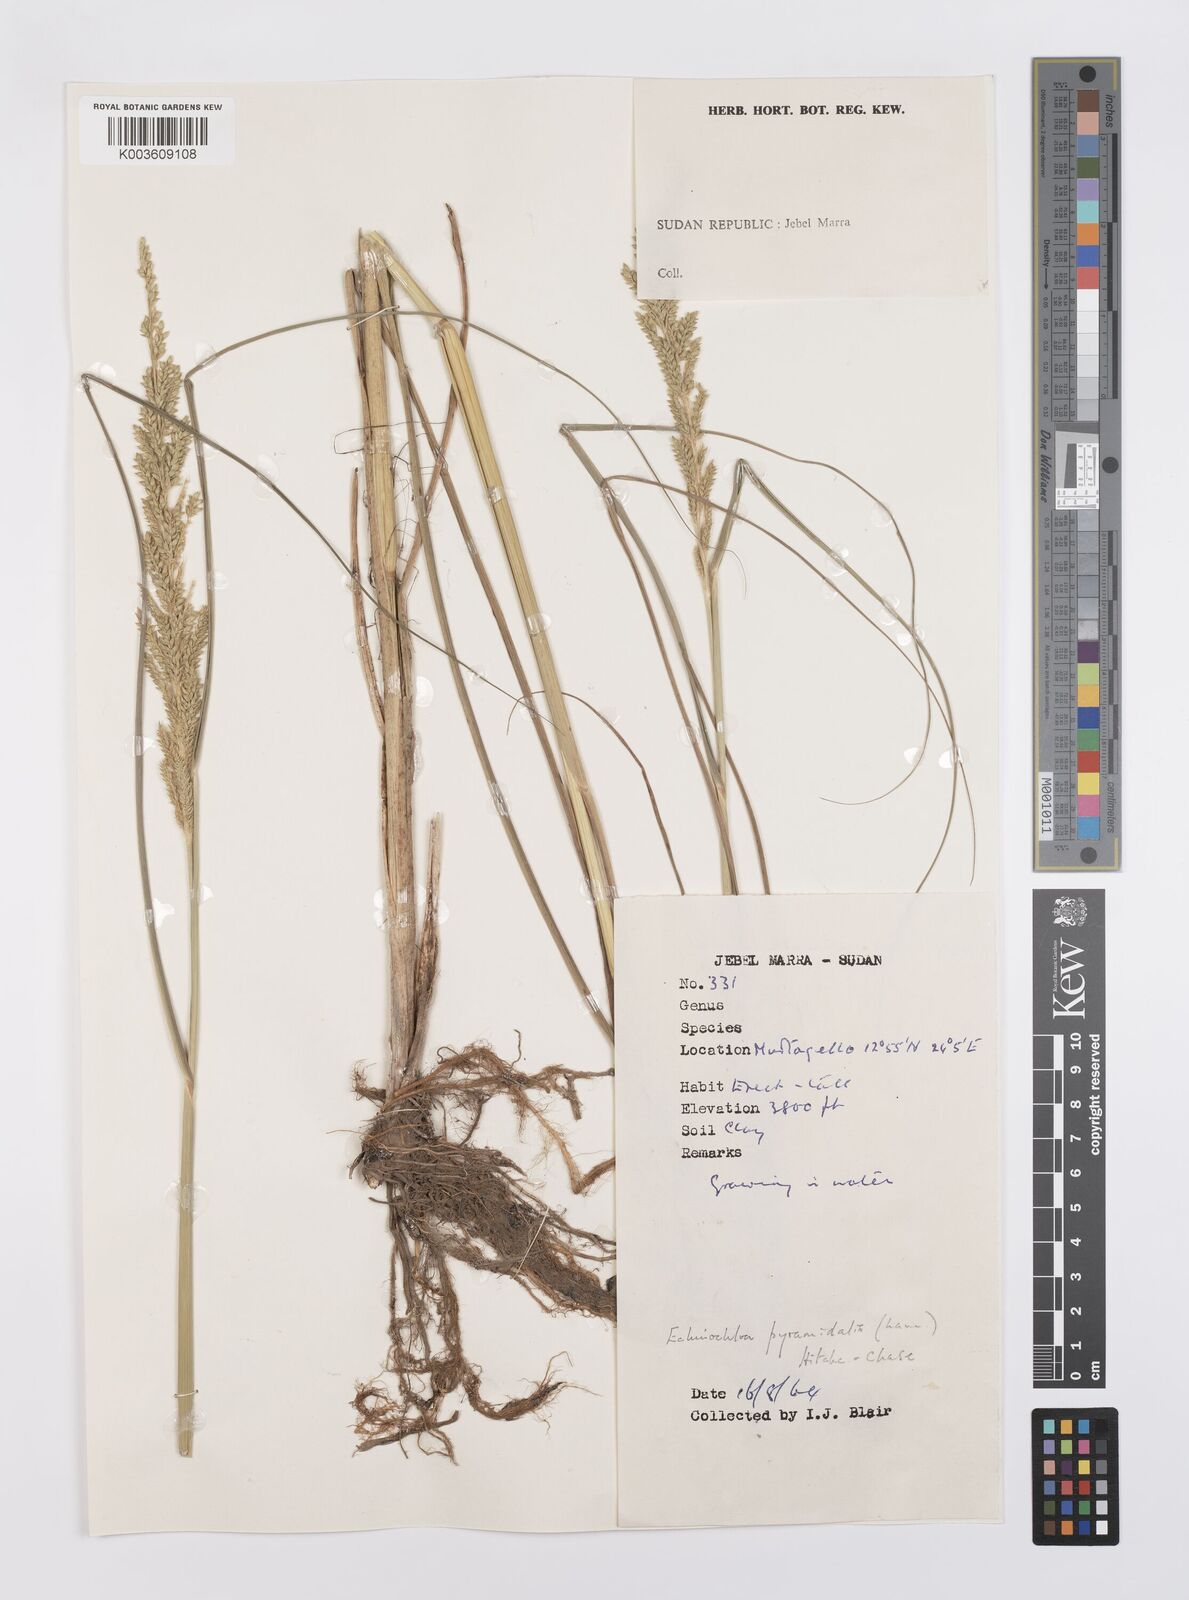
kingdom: Plantae
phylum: Tracheophyta
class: Liliopsida
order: Poales
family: Poaceae
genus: Echinochloa
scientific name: Echinochloa pyramidalis
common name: Antelope grass
